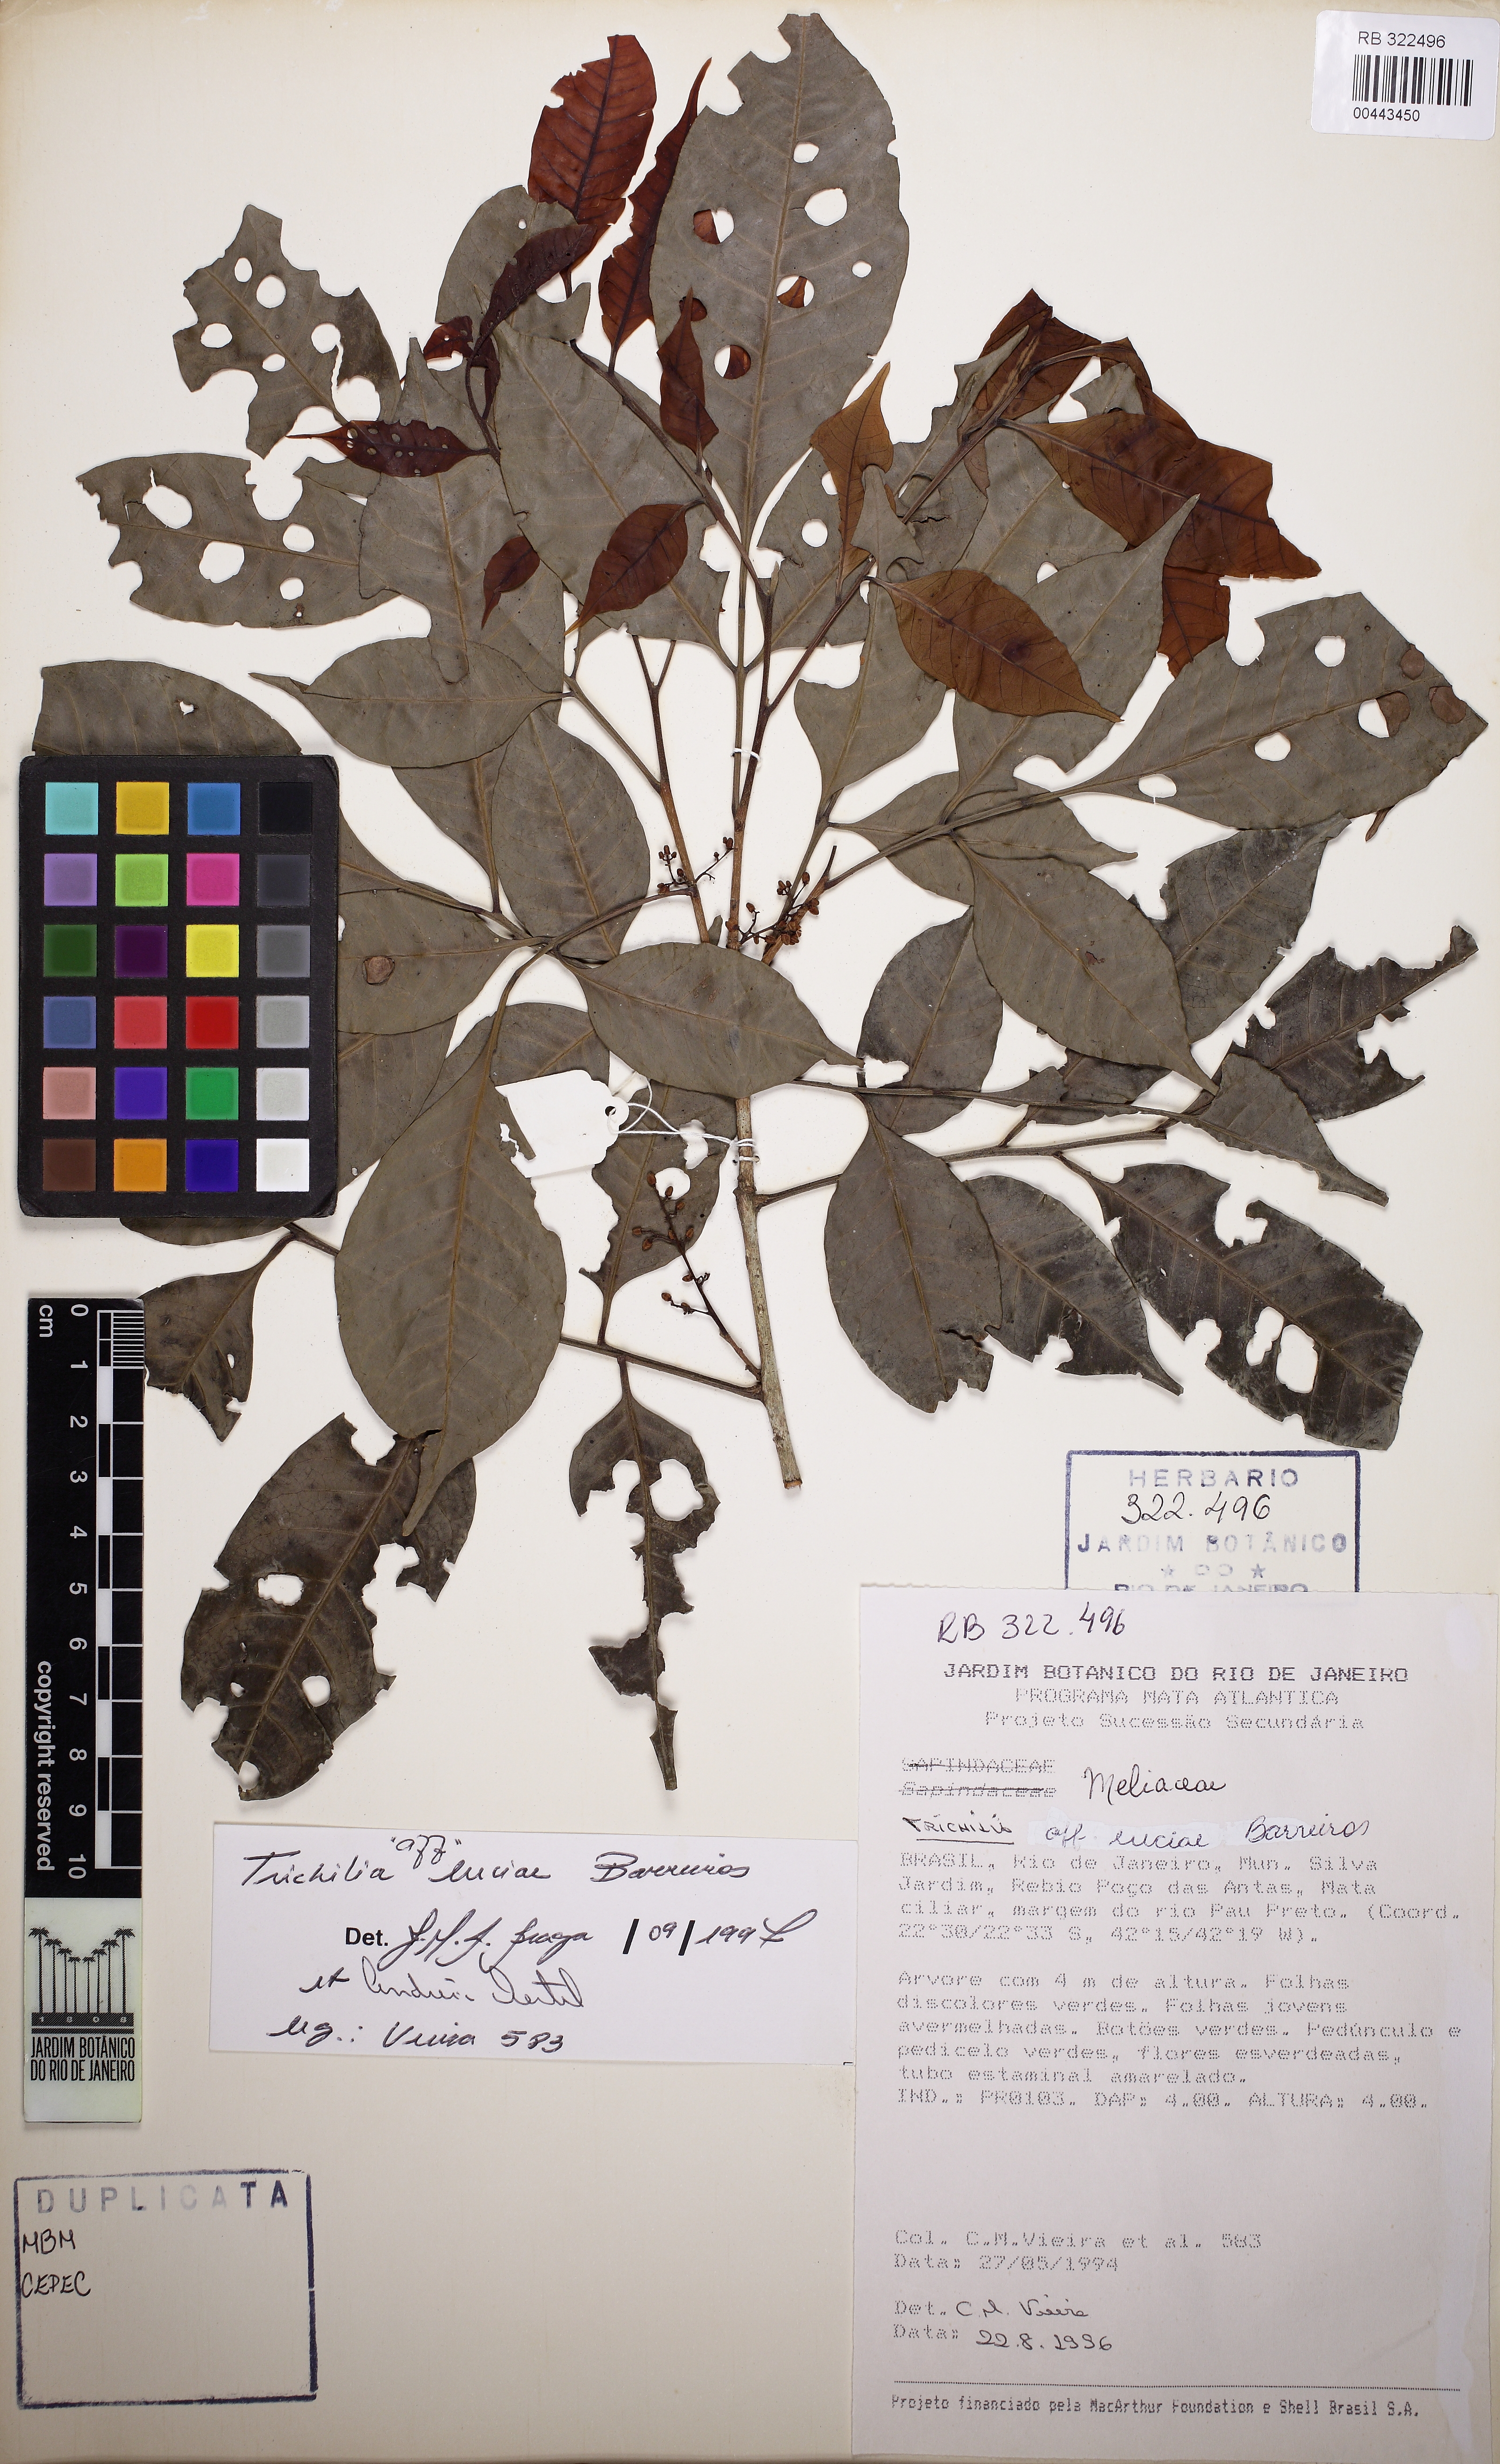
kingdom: Plantae
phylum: Tracheophyta
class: Magnoliopsida
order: Sapindales
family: Meliaceae
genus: Trichilia
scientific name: Trichilia silvatica
